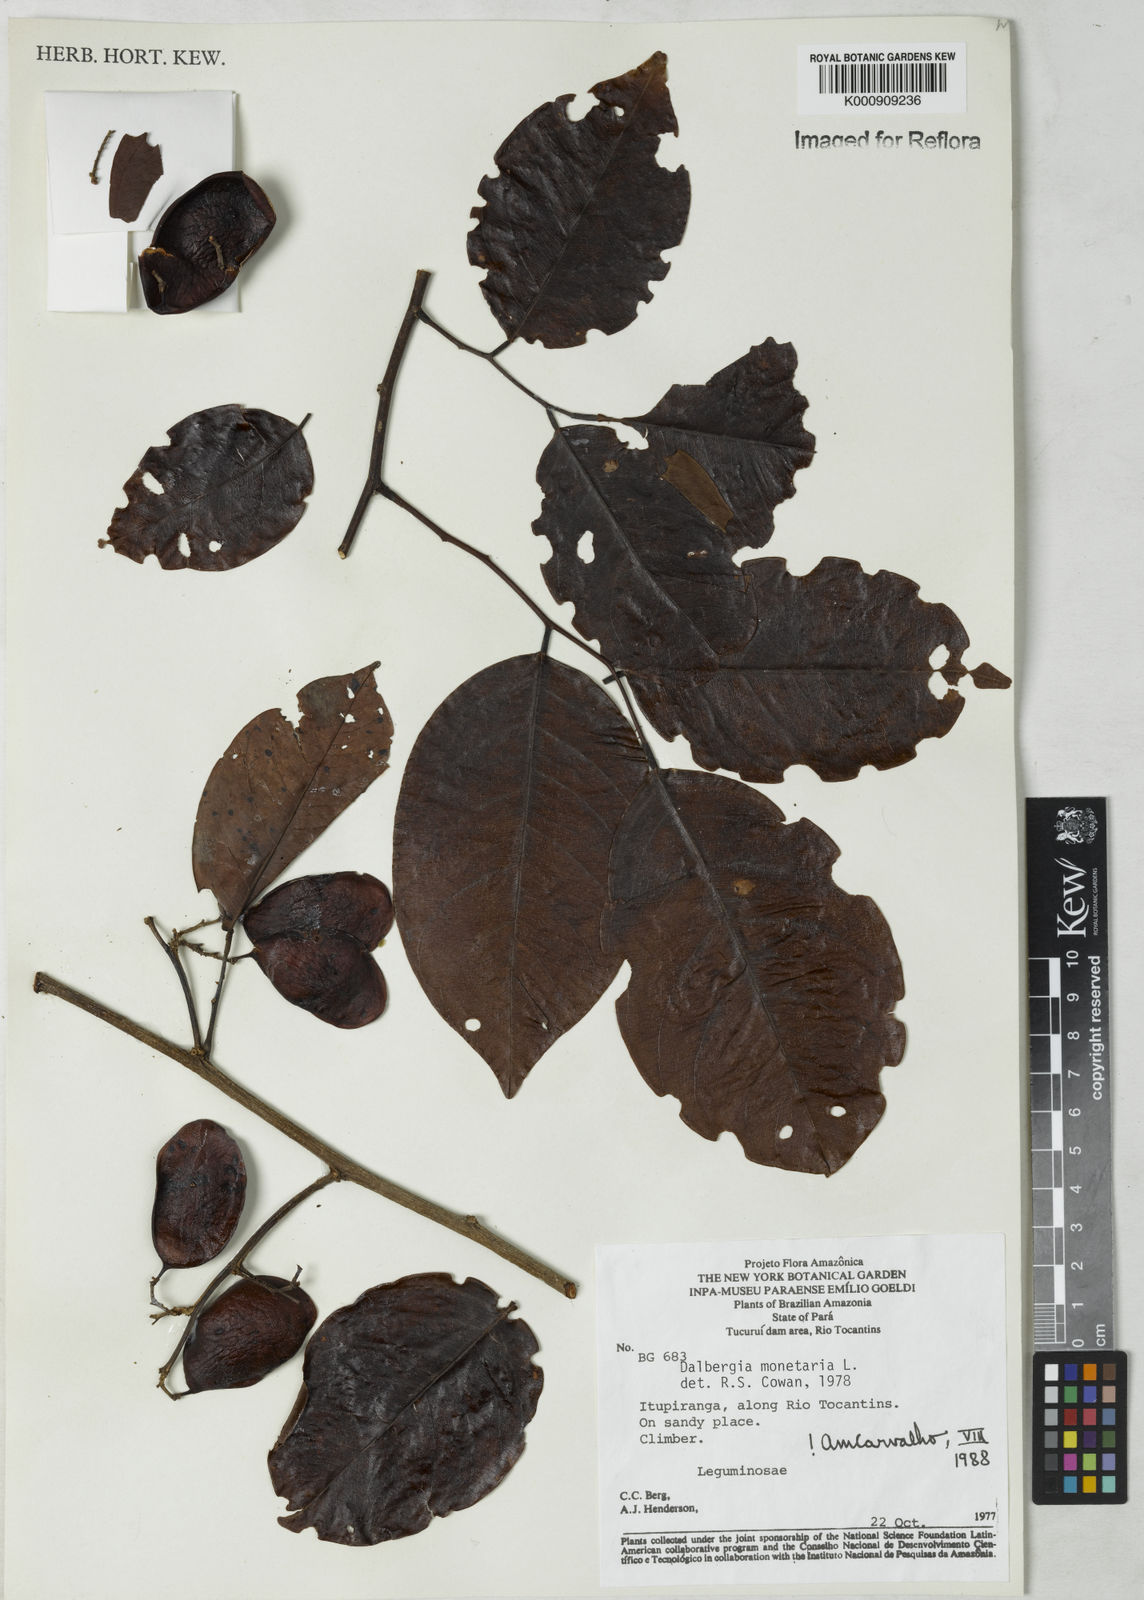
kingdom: Plantae
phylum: Tracheophyta
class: Magnoliopsida
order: Fabales
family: Fabaceae
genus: Dalbergia
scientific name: Dalbergia ovalis
